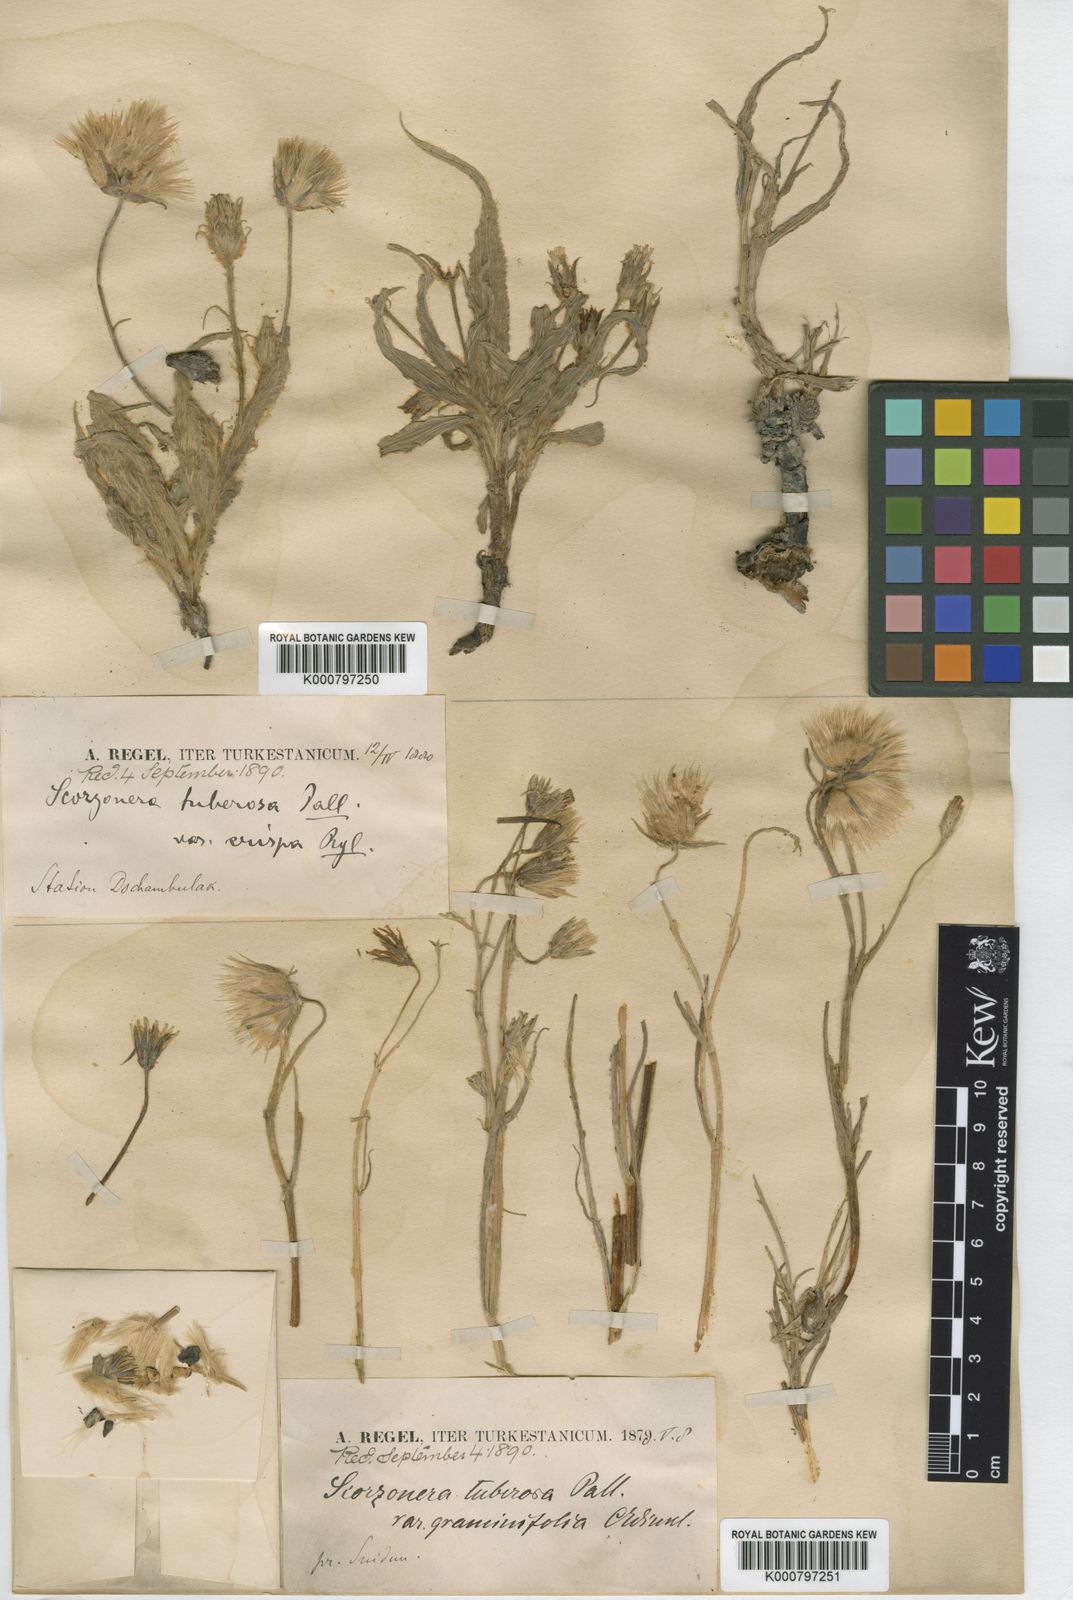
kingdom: Plantae
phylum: Tracheophyta
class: Magnoliopsida
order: Asterales
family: Asteraceae
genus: Gelasia
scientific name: Gelasia tuberosa
